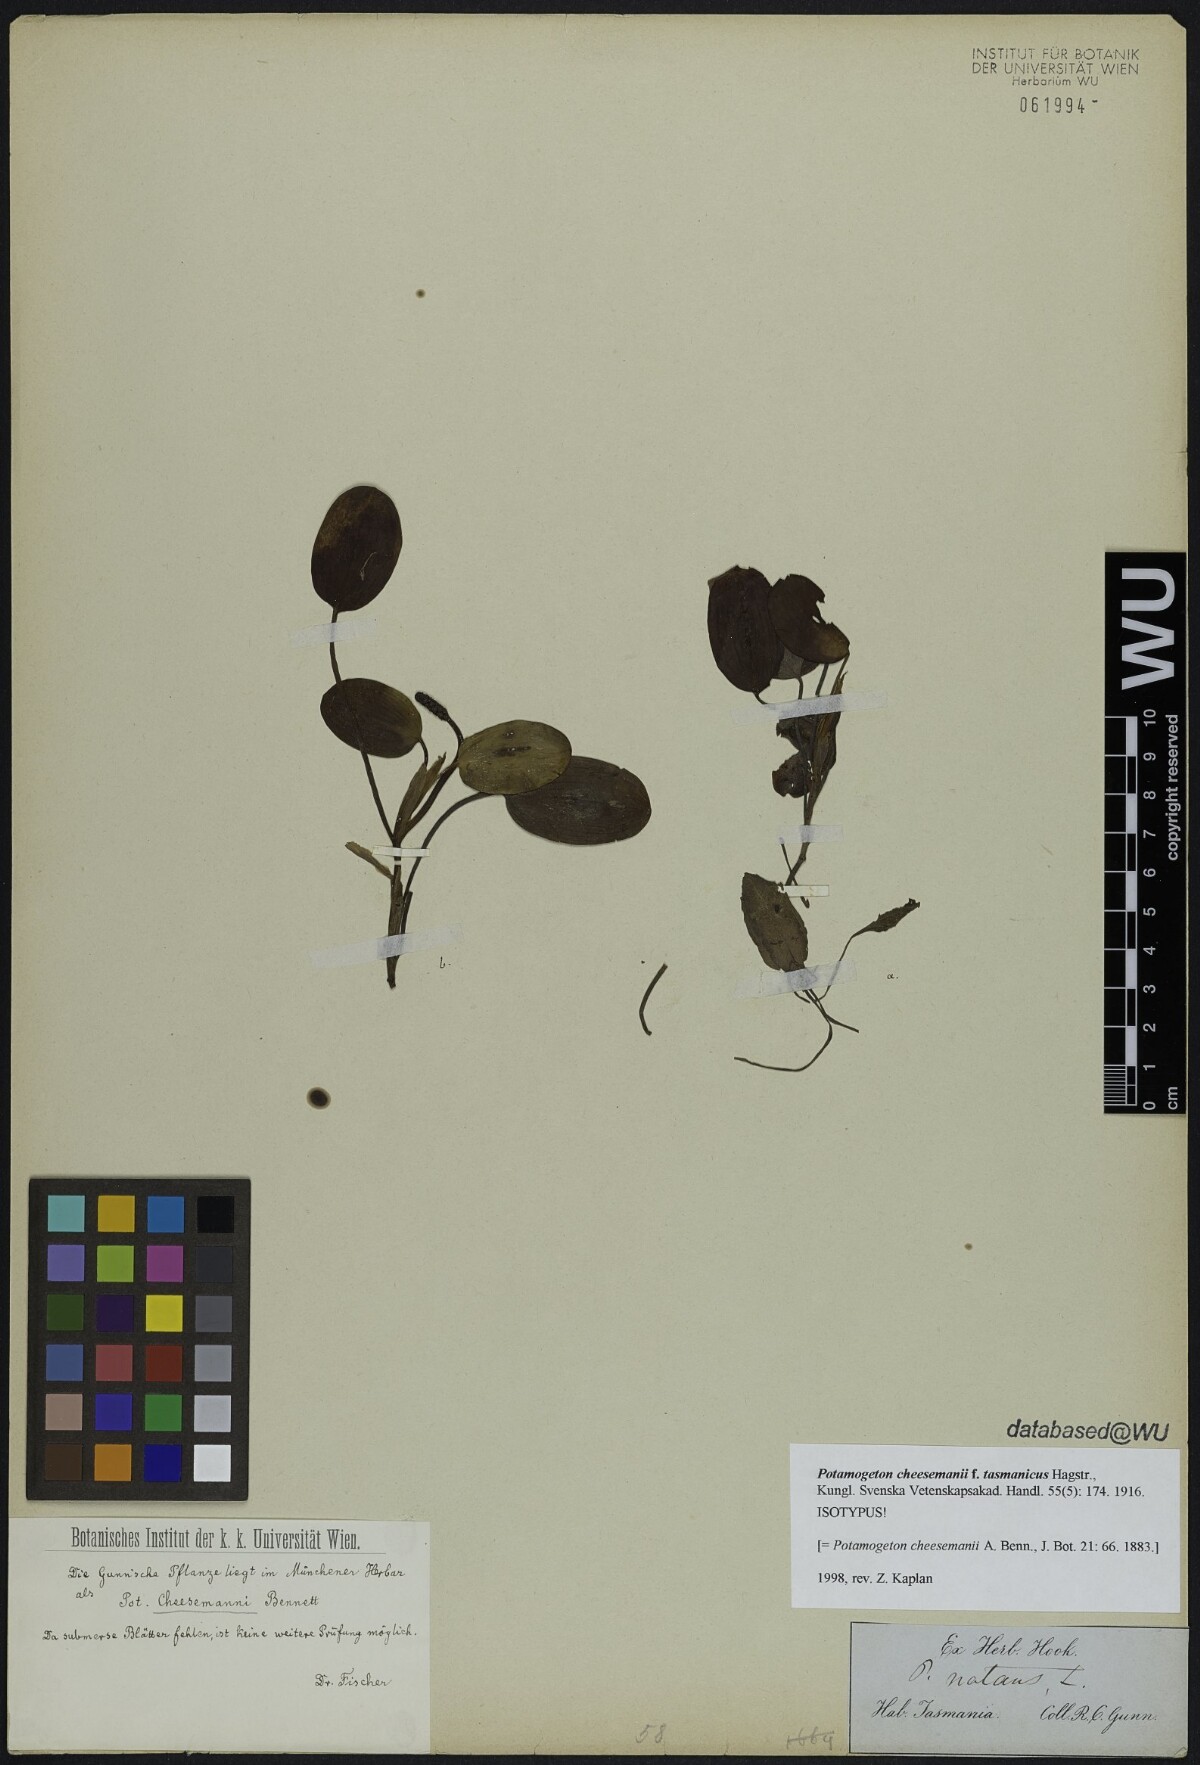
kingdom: Plantae
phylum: Tracheophyta
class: Liliopsida
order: Alismatales
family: Potamogetonaceae
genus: Potamogeton
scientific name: Potamogeton cheesemanii
